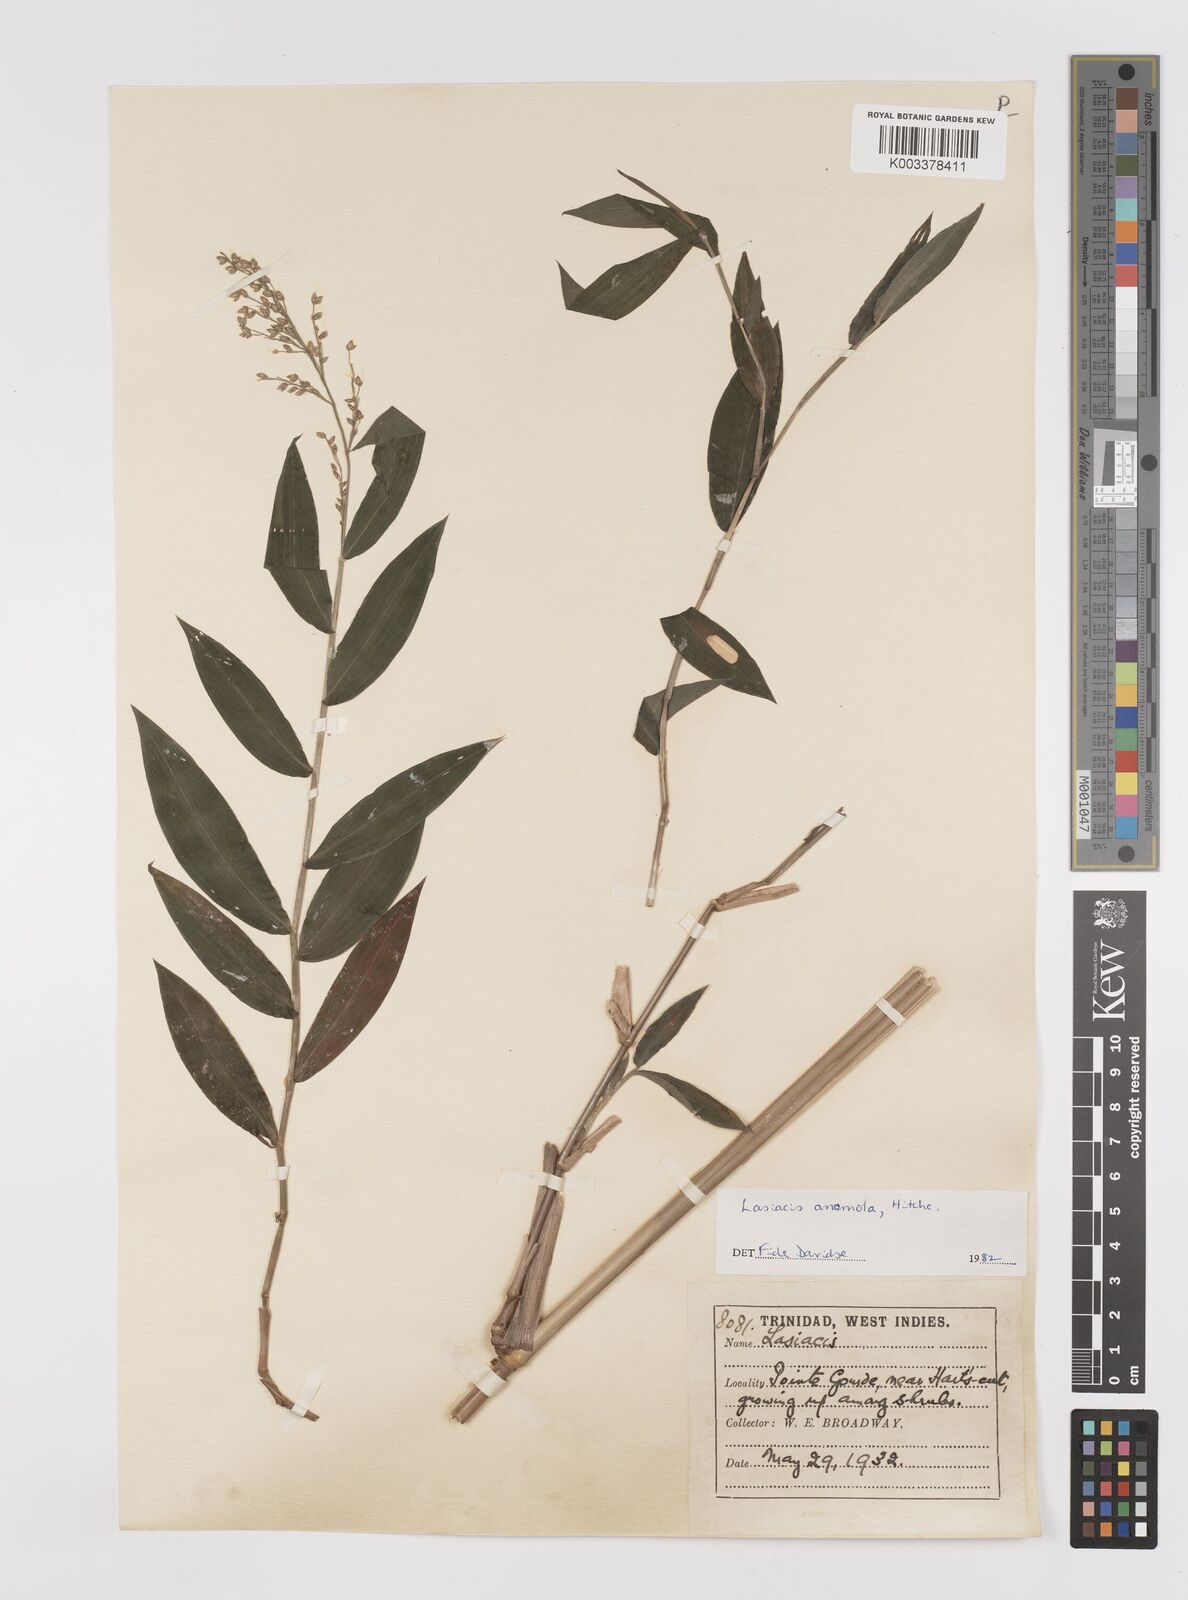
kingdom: Plantae
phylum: Tracheophyta
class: Liliopsida
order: Poales
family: Poaceae
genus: Lasiacis
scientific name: Lasiacis anomala
